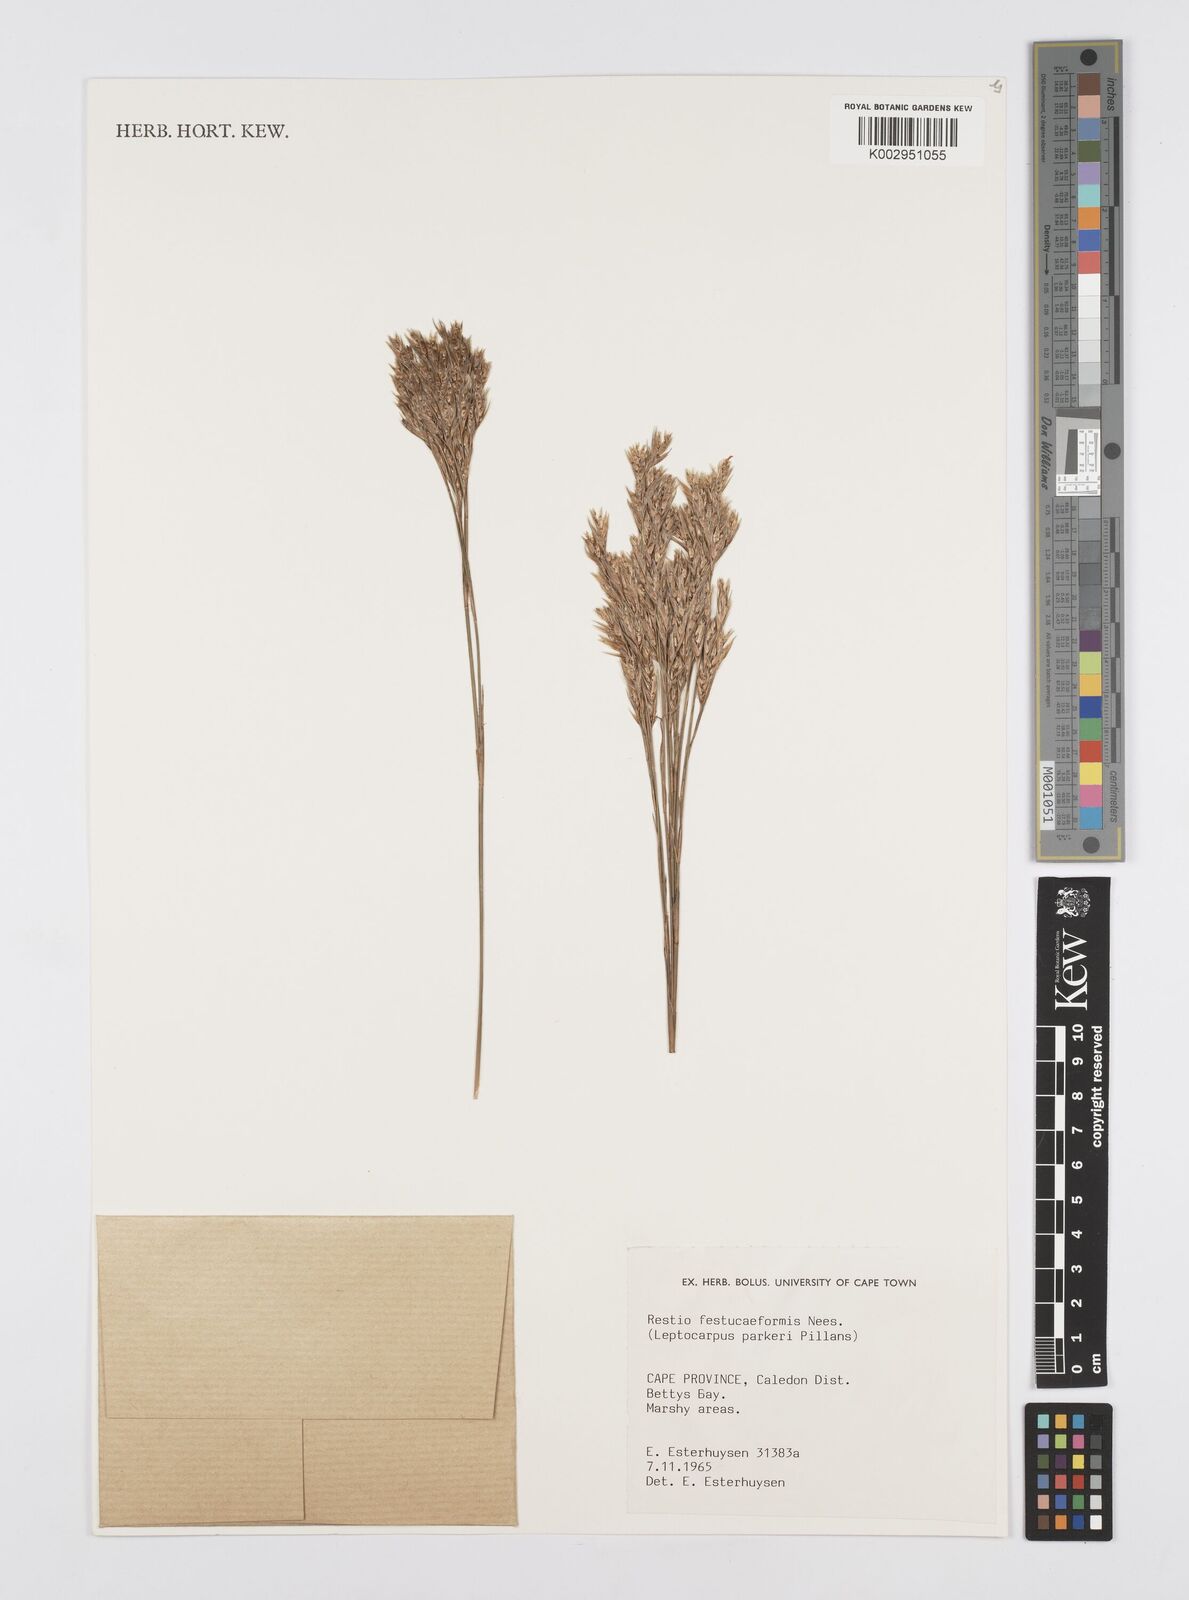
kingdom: Plantae
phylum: Tracheophyta
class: Liliopsida
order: Poales
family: Restionaceae
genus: Restio
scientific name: Restio festuciformis
